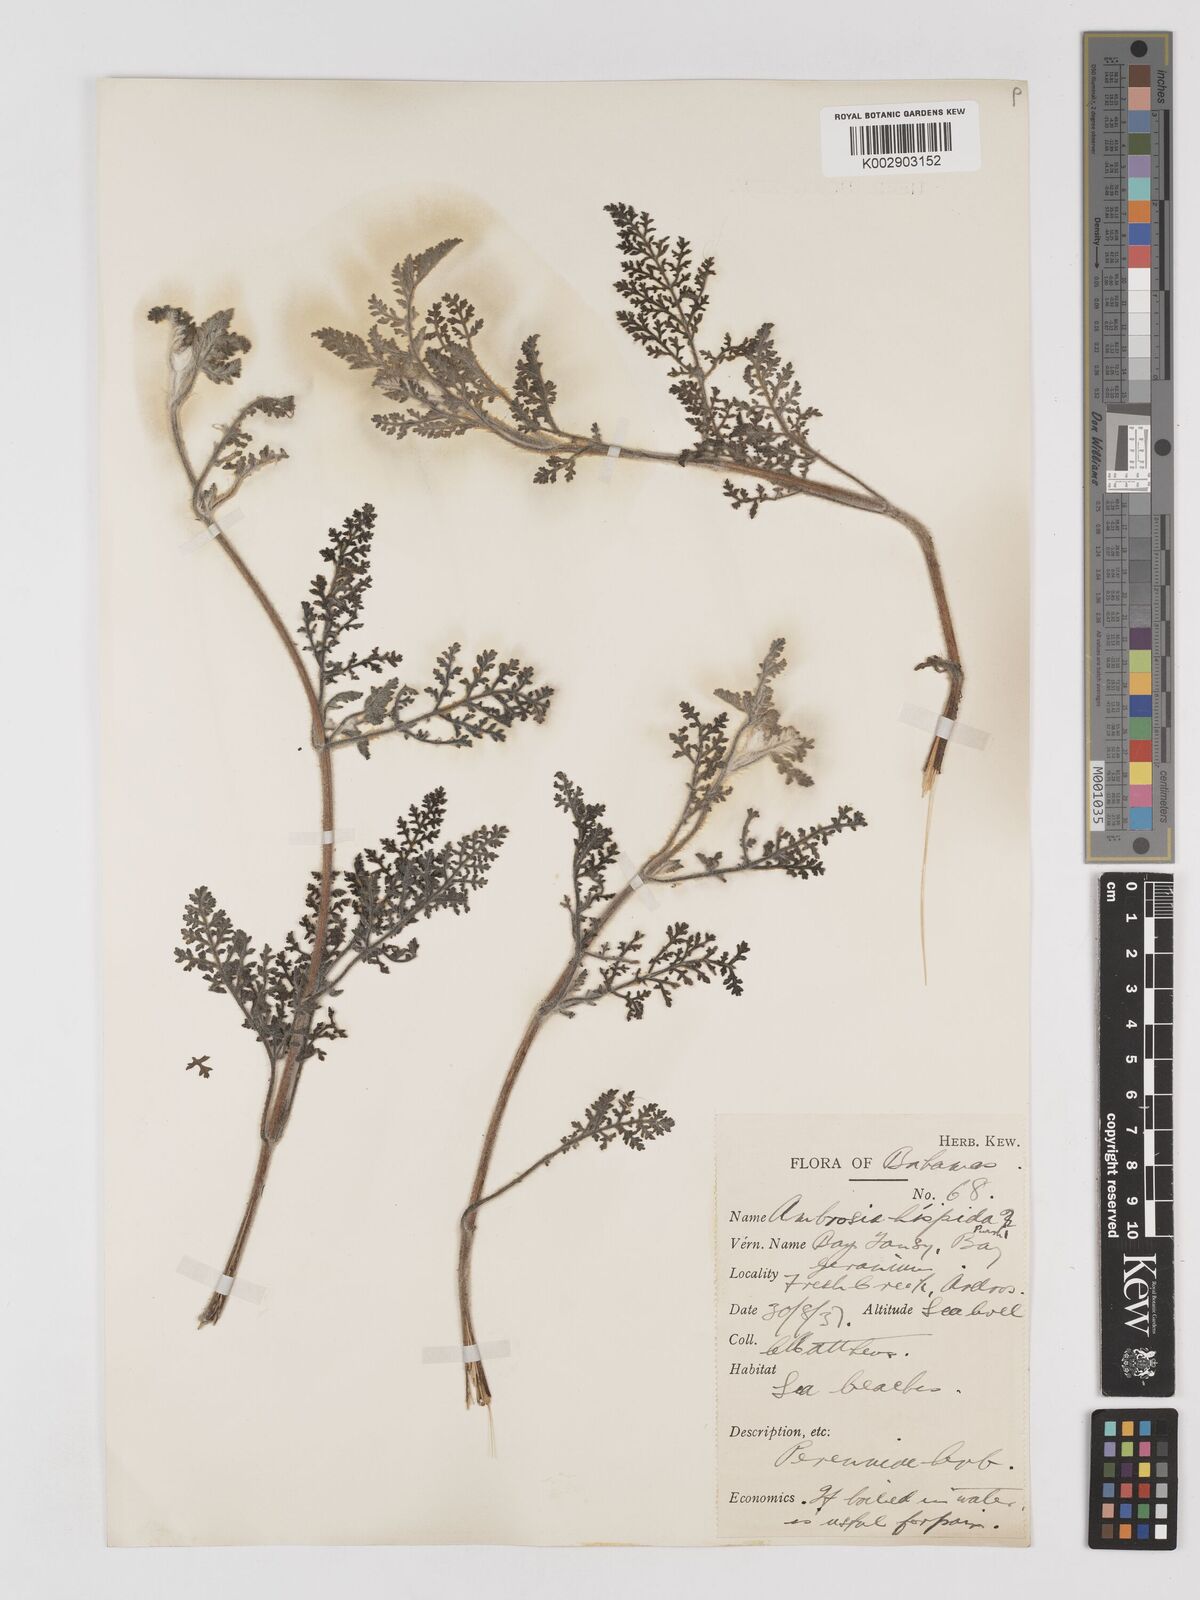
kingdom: Plantae
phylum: Tracheophyta
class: Magnoliopsida
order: Asterales
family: Asteraceae
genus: Ambrosia
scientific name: Ambrosia hispida
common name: Coastal ragweed
